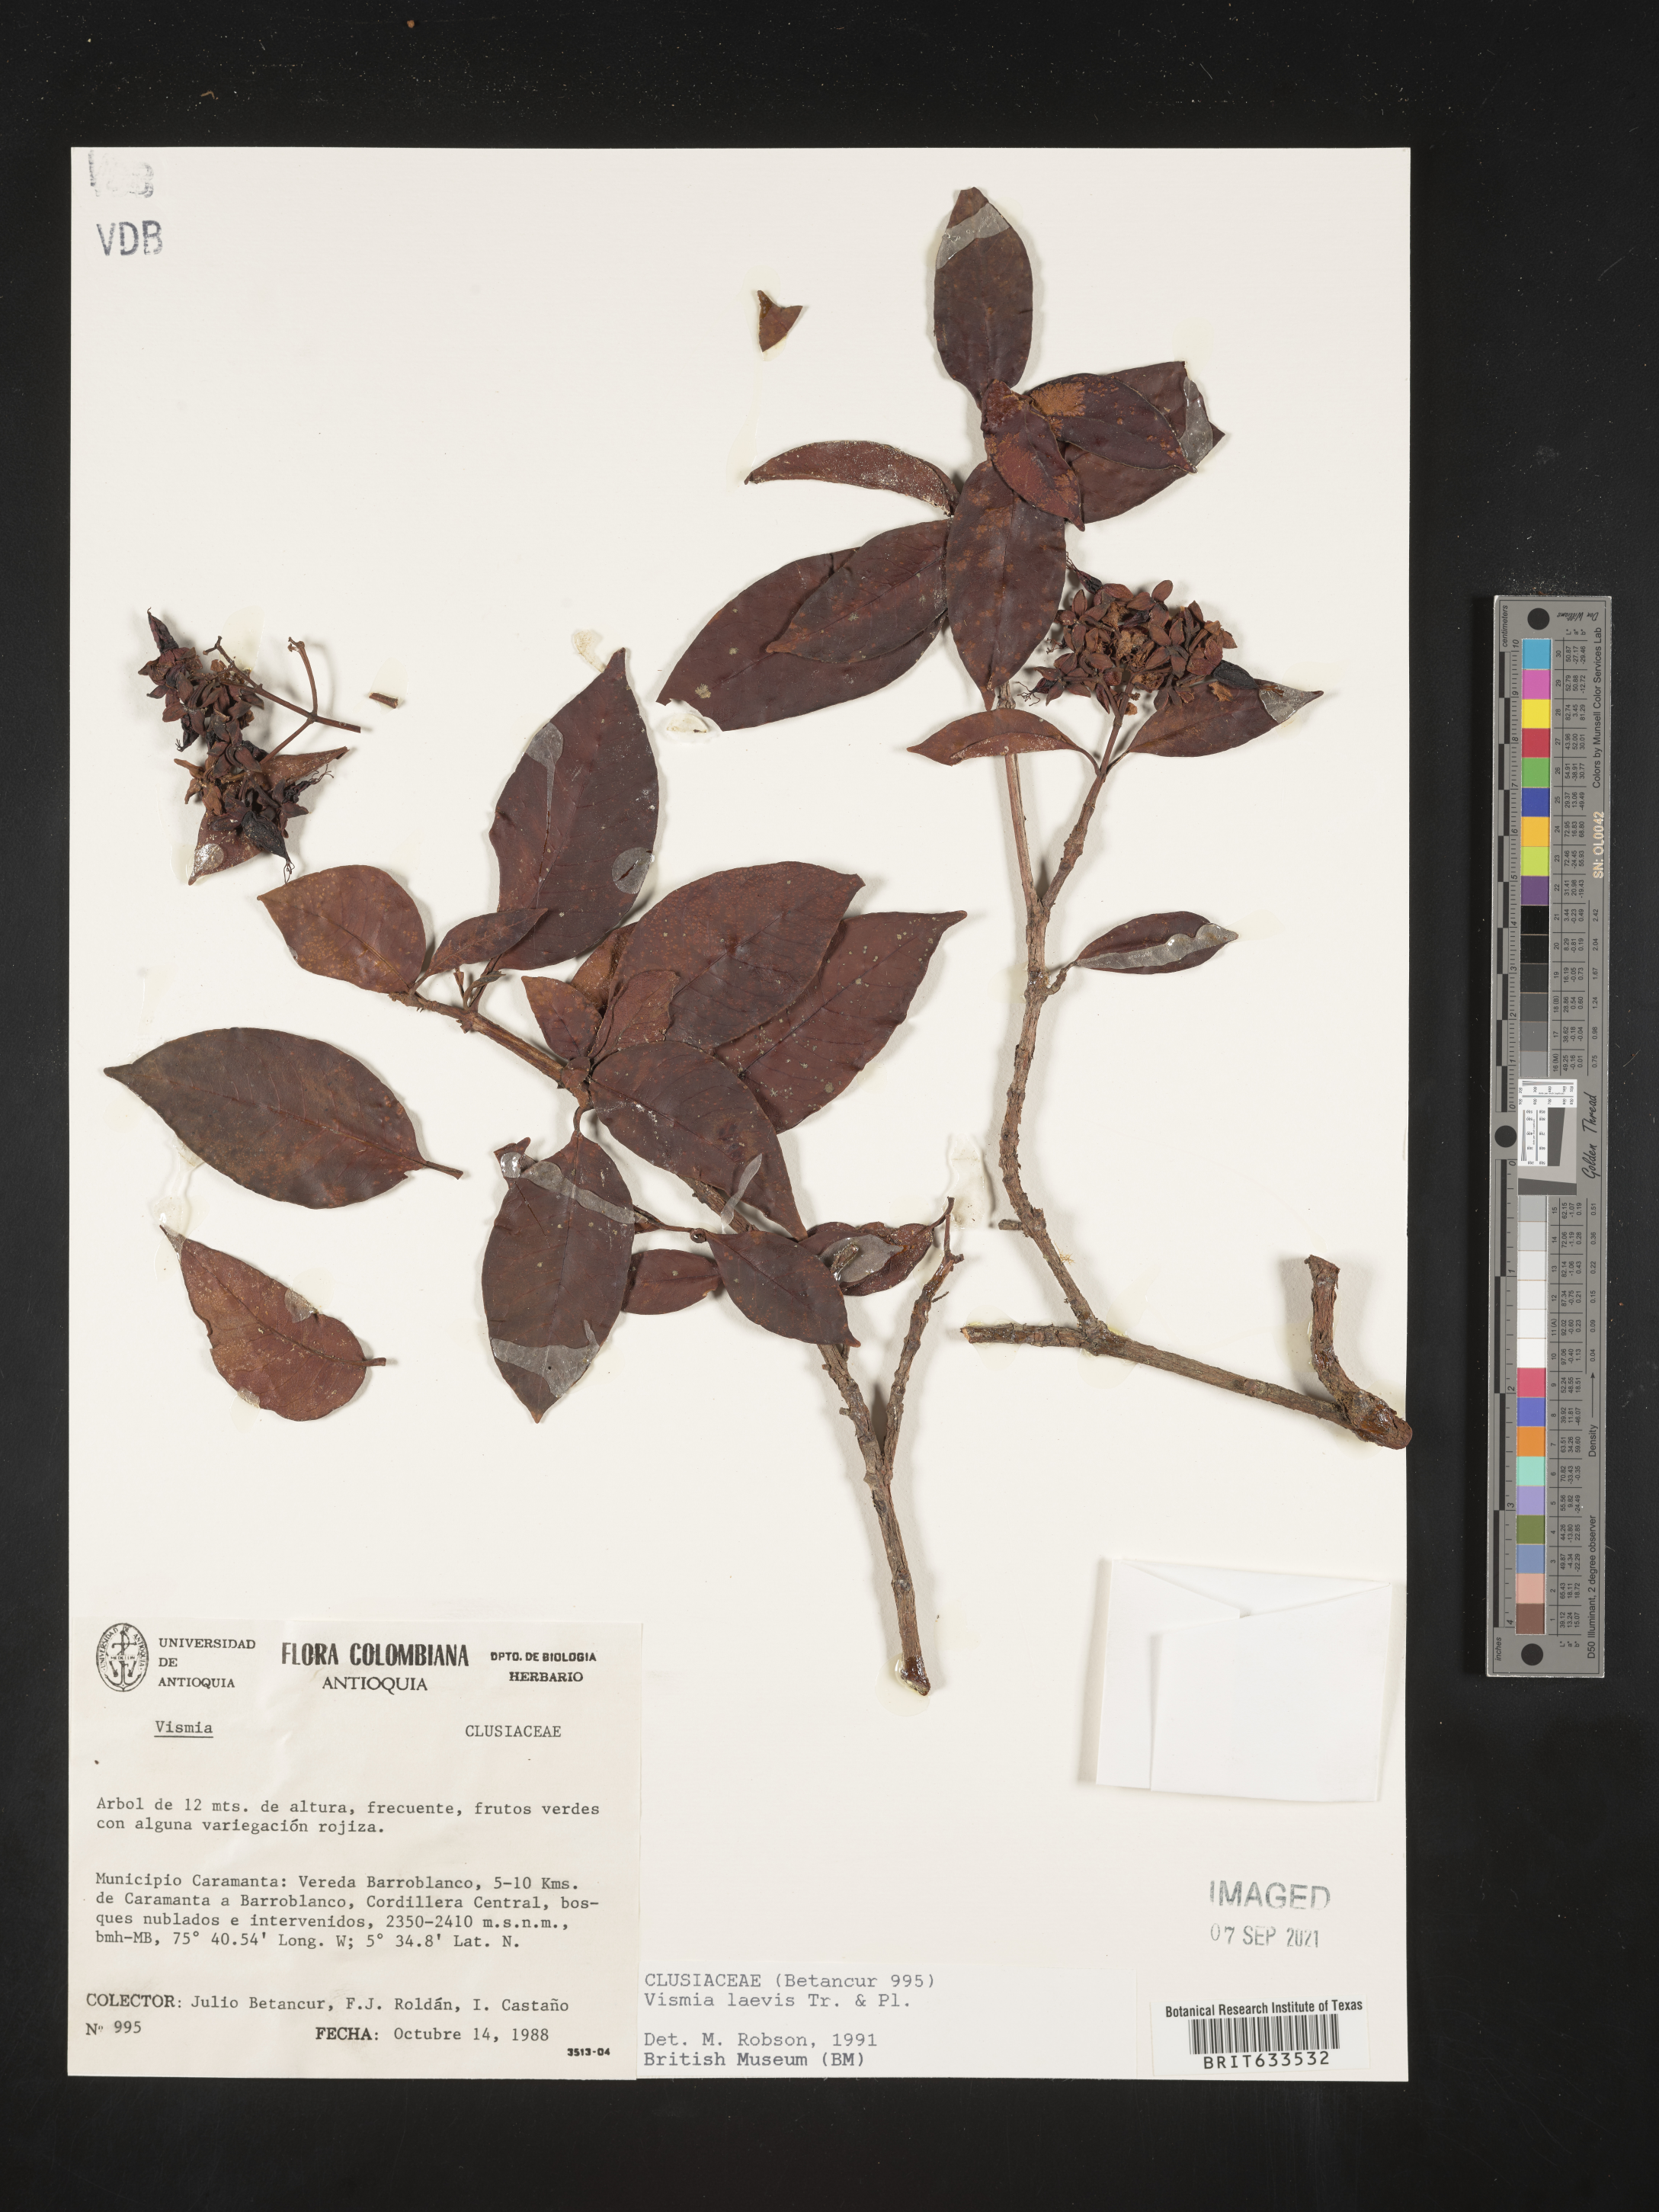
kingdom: Plantae
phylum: Tracheophyta
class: Magnoliopsida
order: Malpighiales
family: Hypericaceae
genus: Vismia
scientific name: Vismia
